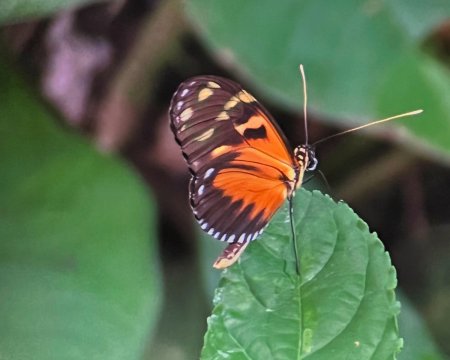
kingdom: Animalia
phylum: Arthropoda
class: Insecta
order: Lepidoptera
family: Nymphalidae
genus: Heliconius
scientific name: Heliconius ismenius
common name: Tiger-striped Longwing
